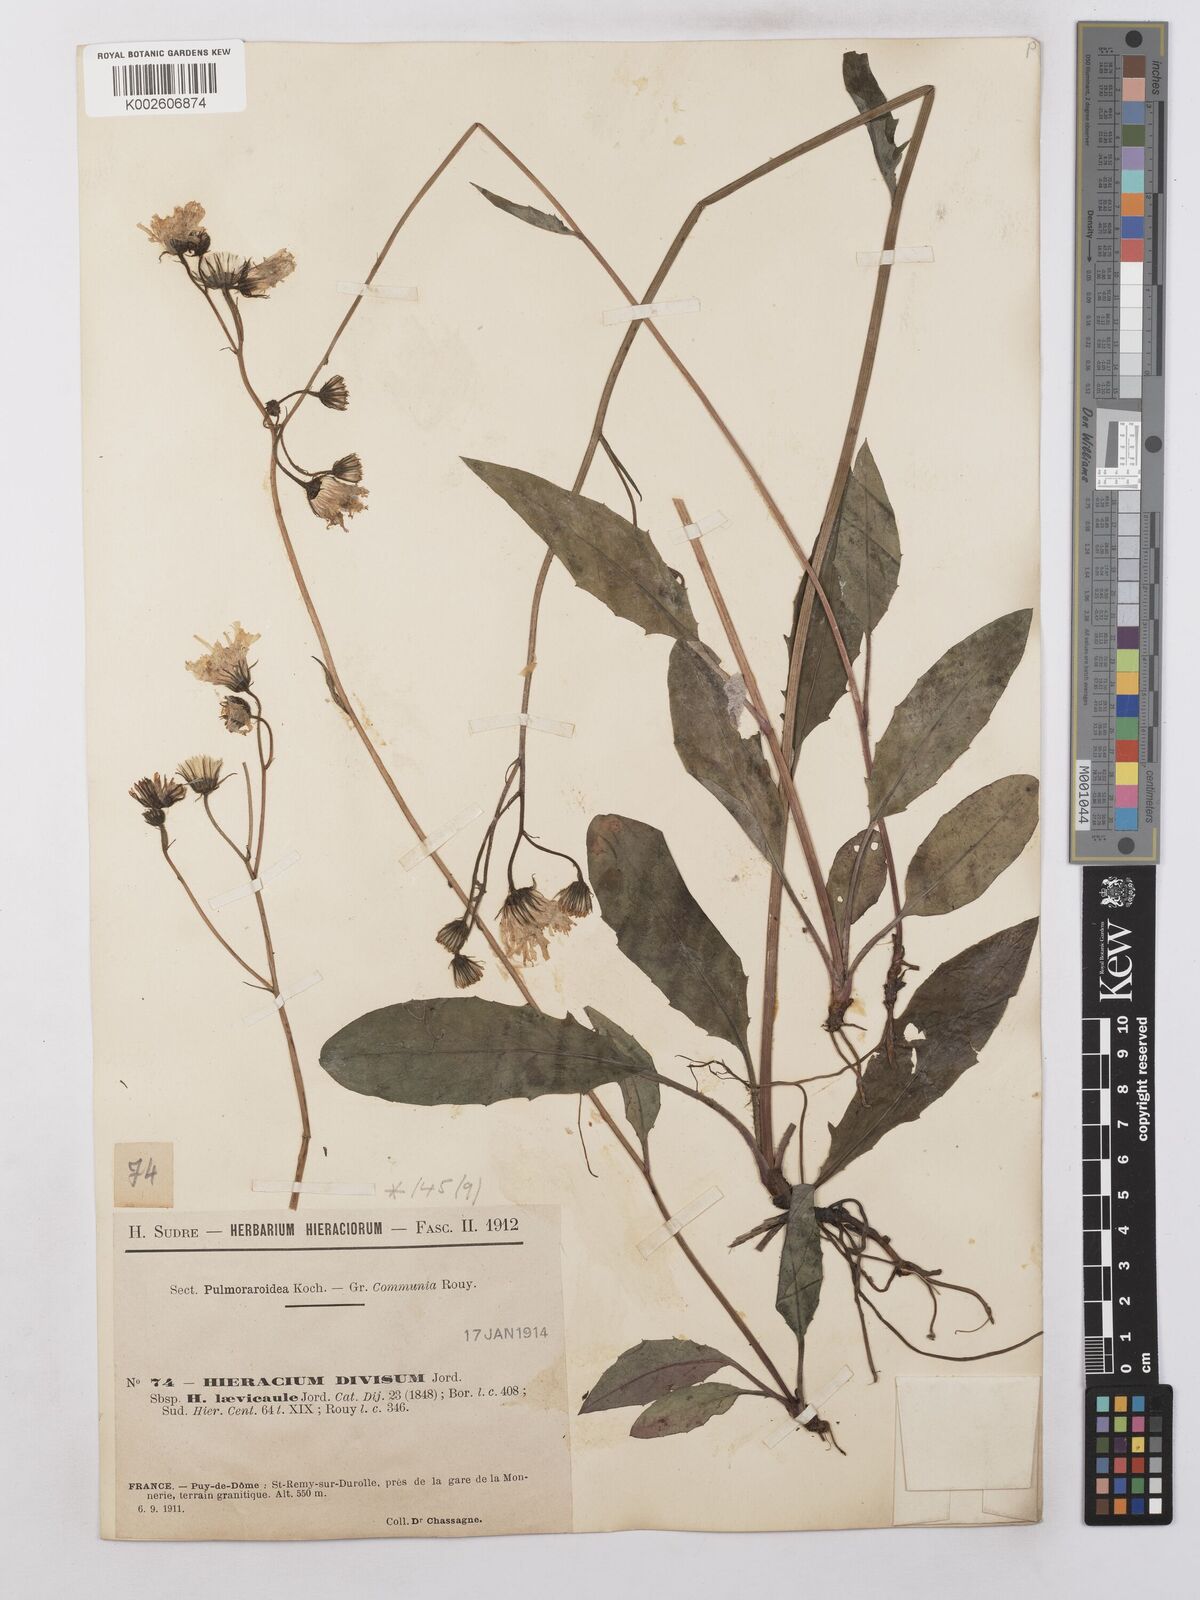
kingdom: Plantae
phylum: Tracheophyta
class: Magnoliopsida
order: Asterales
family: Asteraceae
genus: Hieracium
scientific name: Hieracium levicaule
